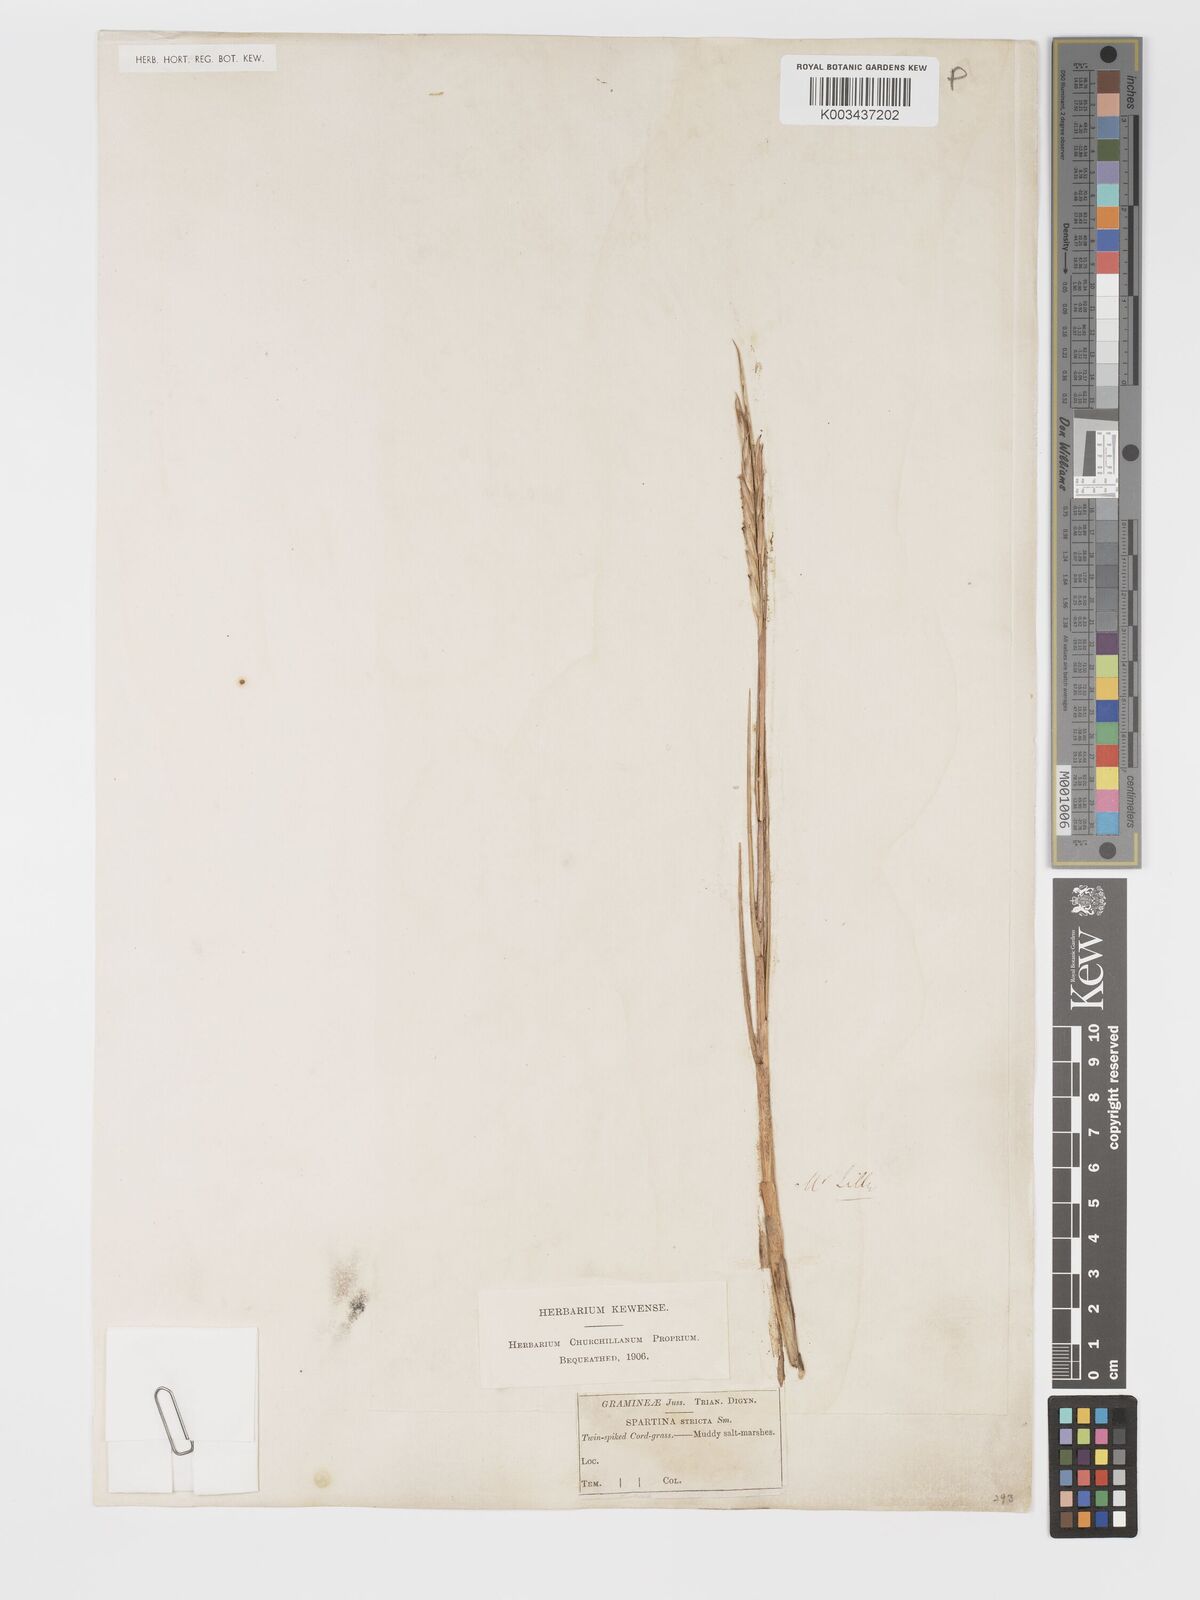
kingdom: Plantae
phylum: Tracheophyta
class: Liliopsida
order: Poales
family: Poaceae
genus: Sporobolus
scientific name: Sporobolus maritimus
